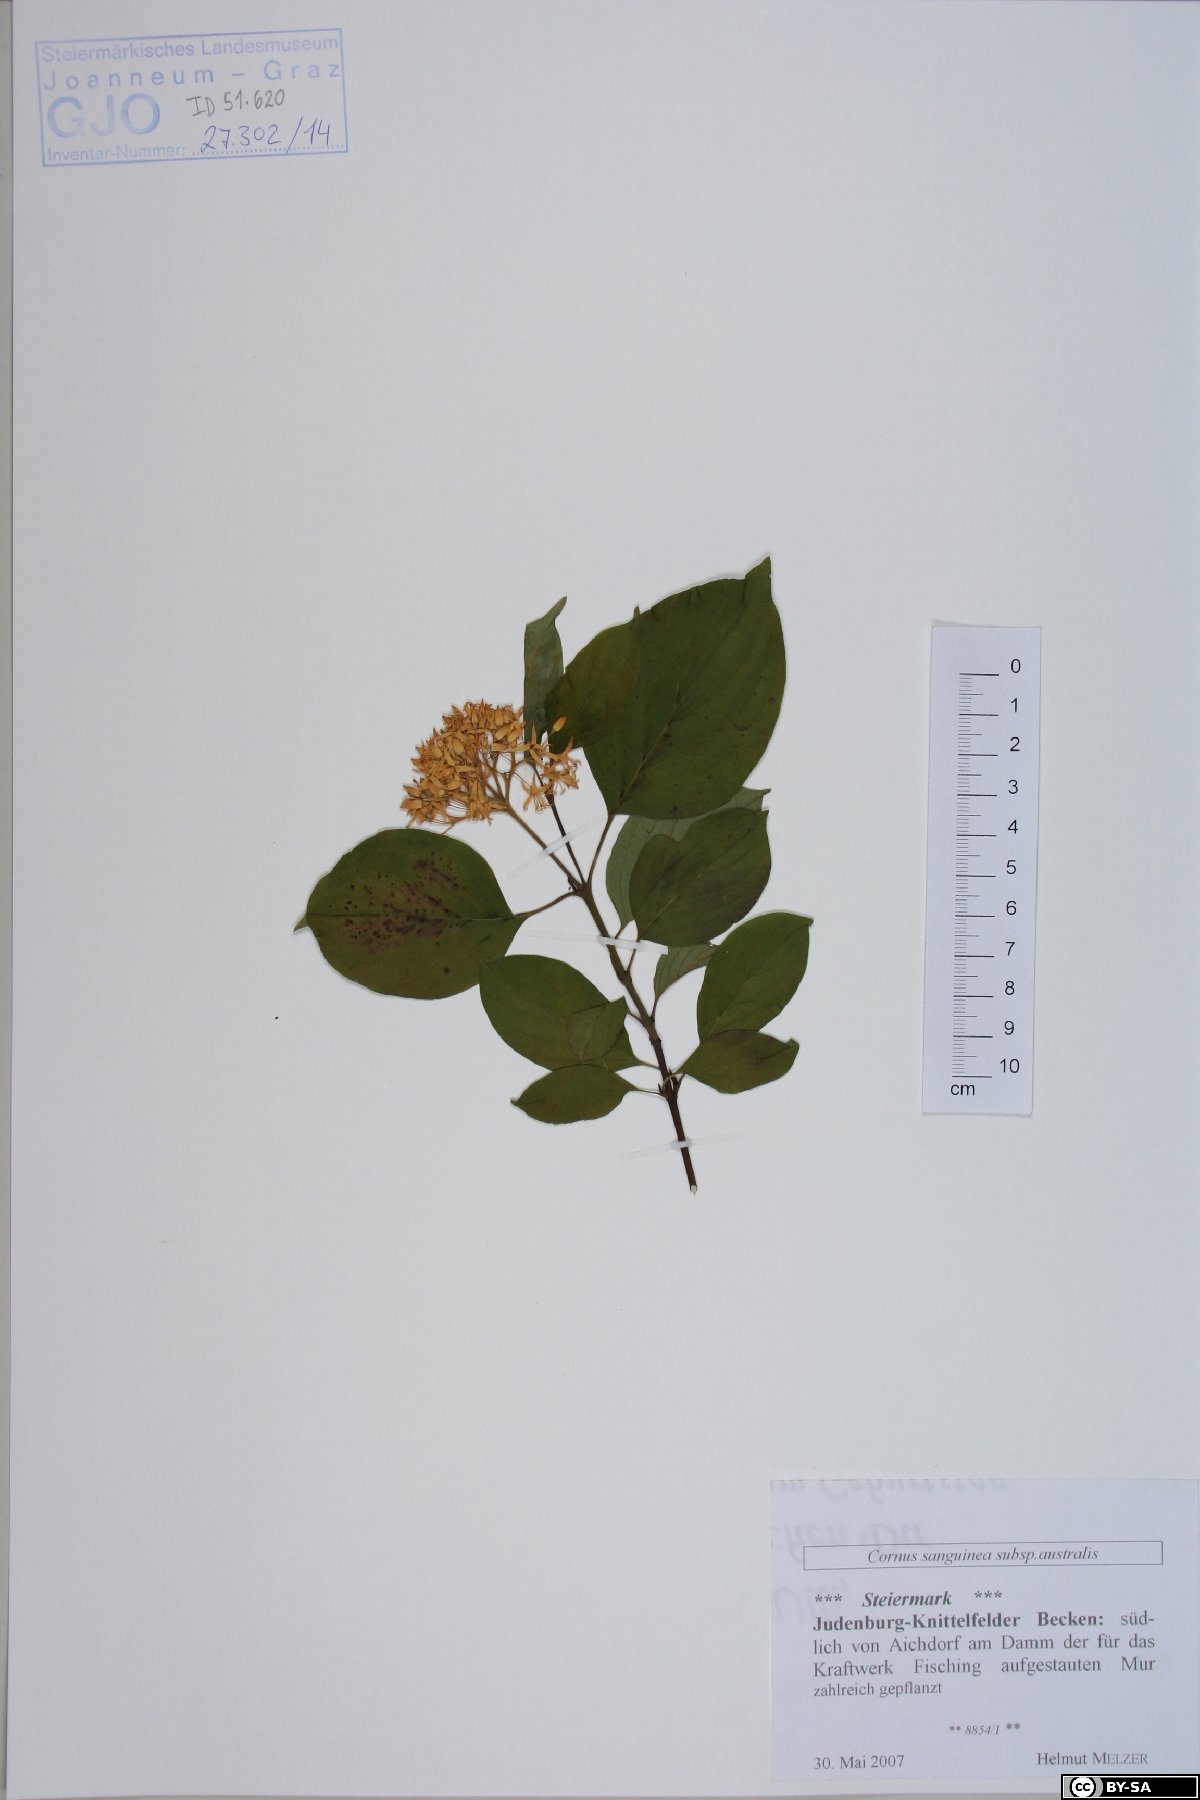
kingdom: Plantae
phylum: Tracheophyta
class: Magnoliopsida
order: Cornales
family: Cornaceae
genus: Cornus
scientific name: Cornus sanguinea
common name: Dogwood
